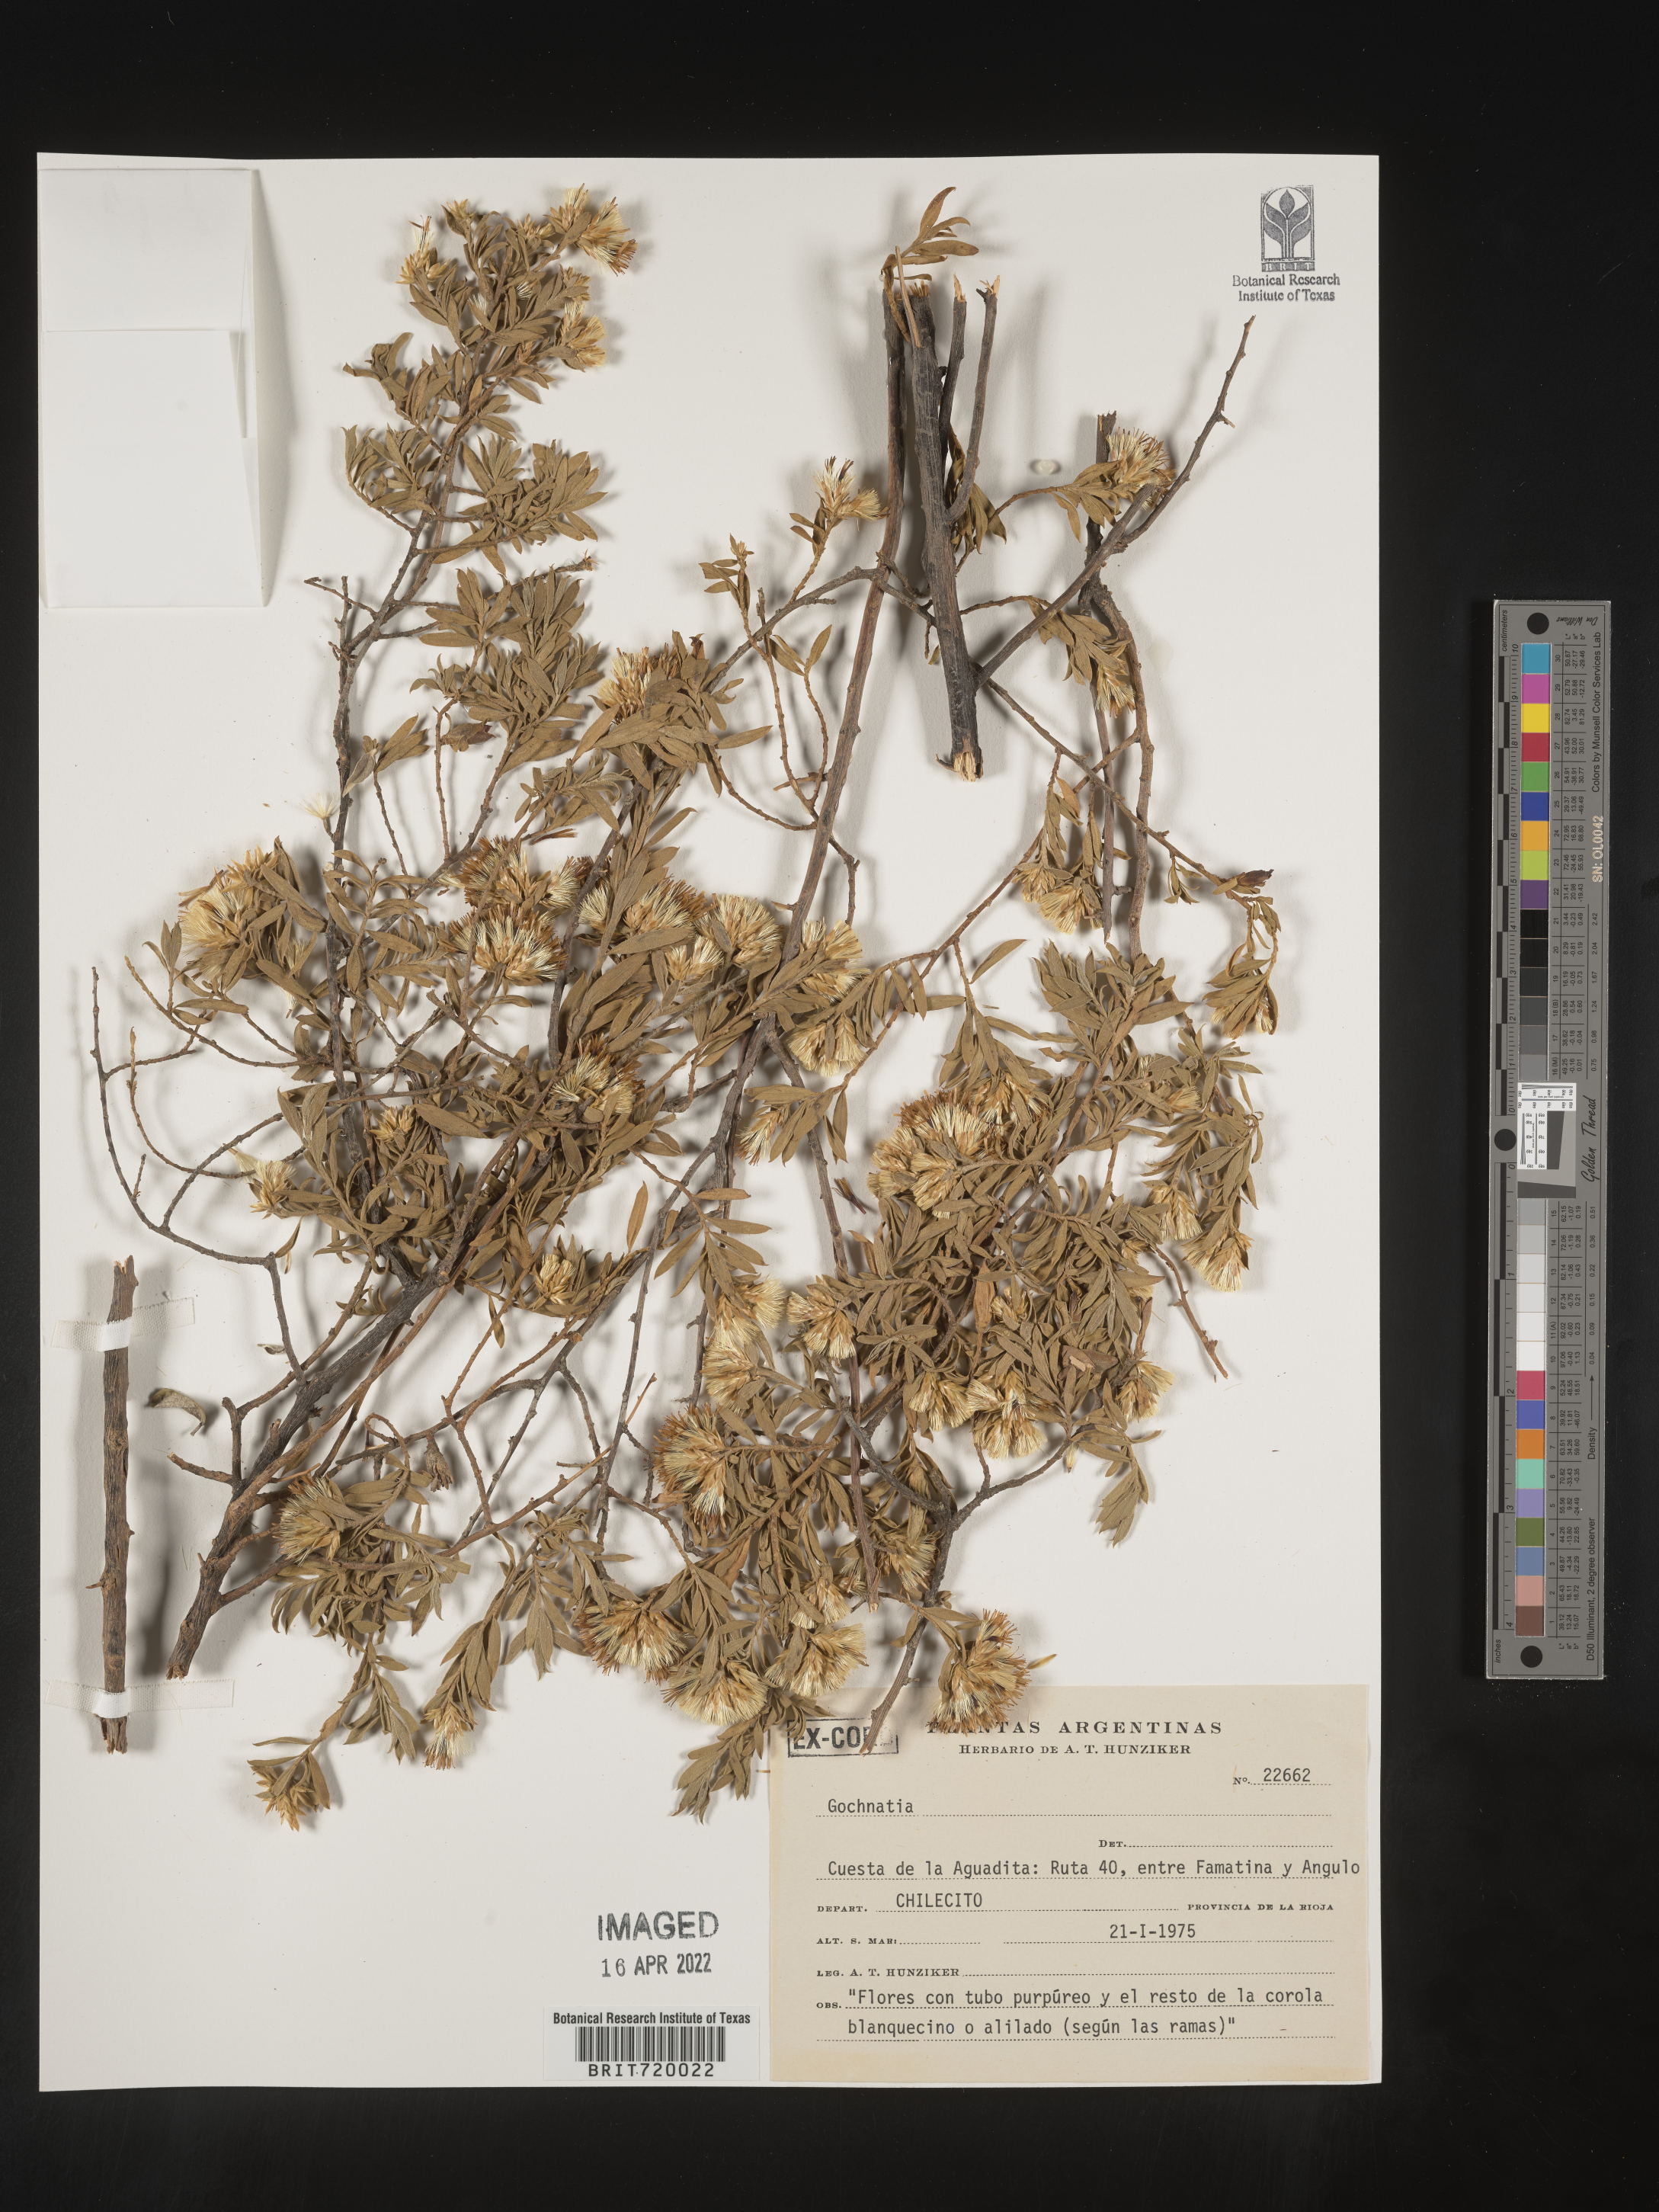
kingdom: Plantae
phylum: Tracheophyta
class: Magnoliopsida
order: Asterales
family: Asteraceae
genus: Gochnatia
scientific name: Gochnatia
